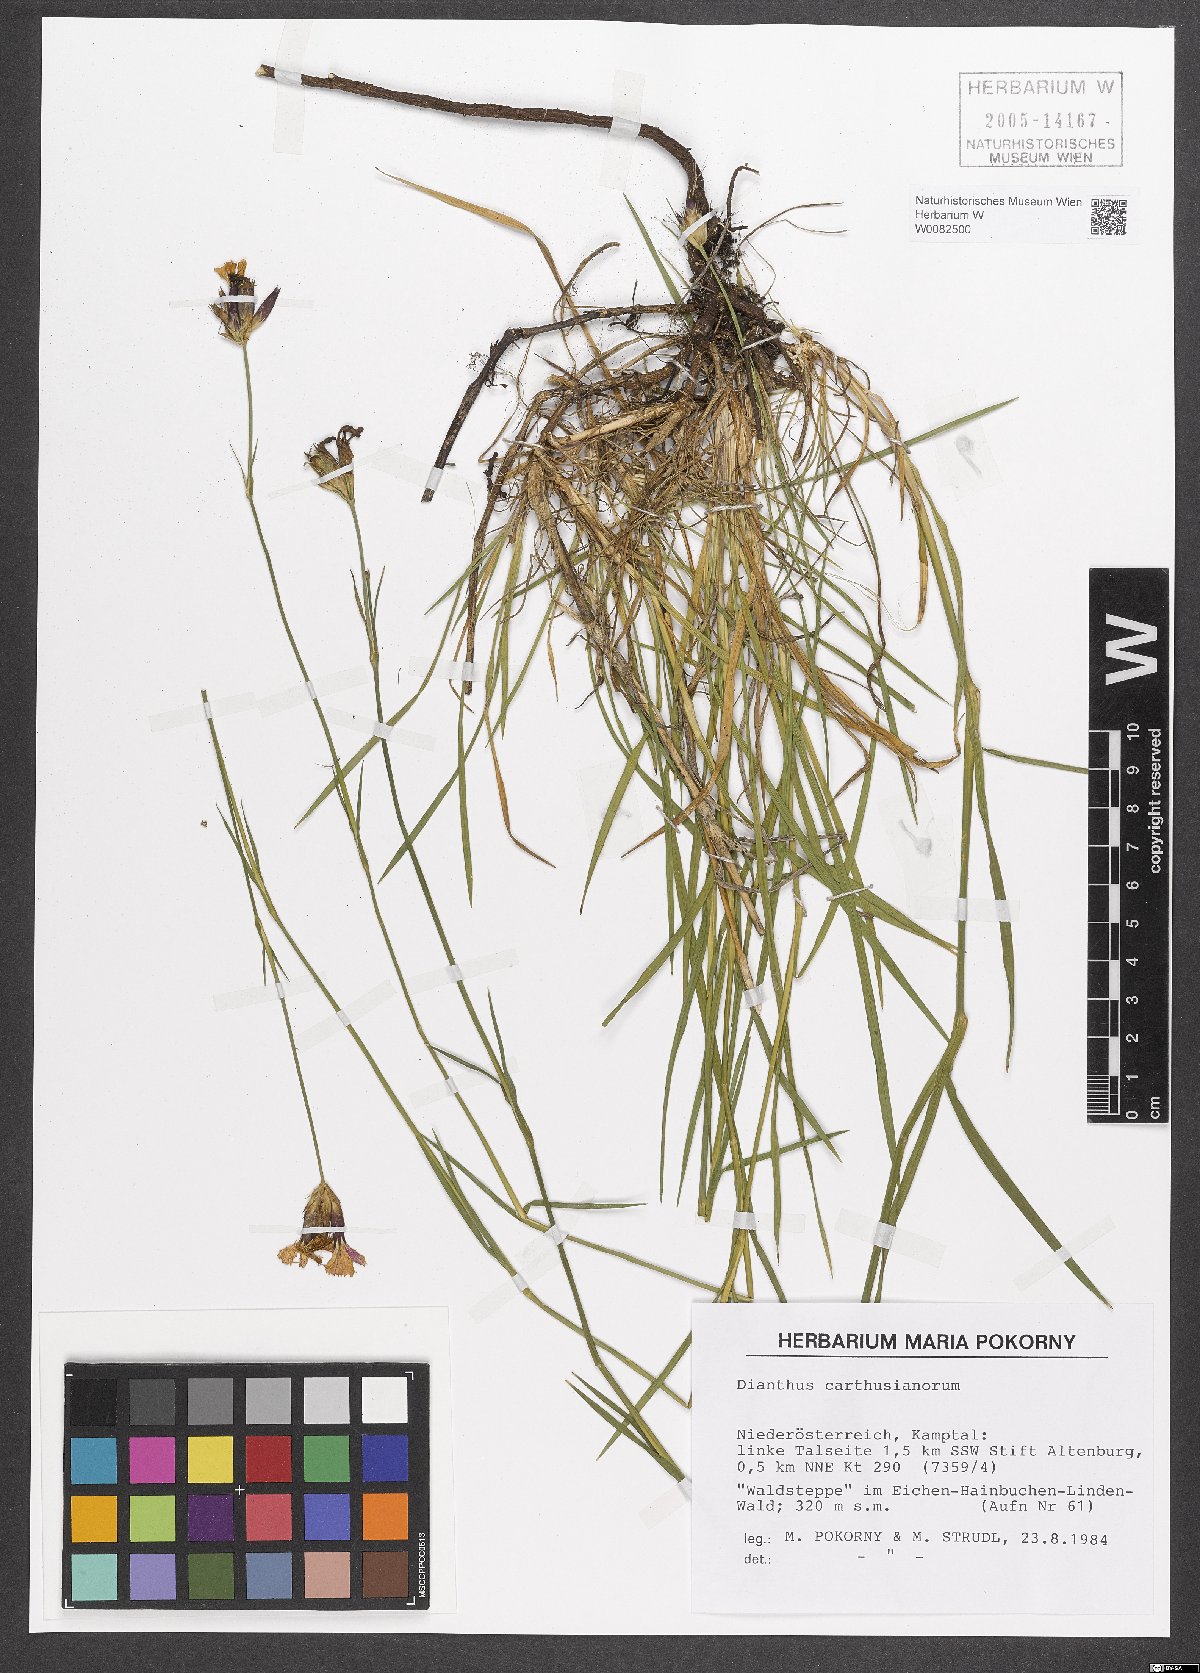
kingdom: Plantae
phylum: Tracheophyta
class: Magnoliopsida
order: Caryophyllales
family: Caryophyllaceae
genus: Dianthus
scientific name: Dianthus carthusianorum
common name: Carthusian pink
